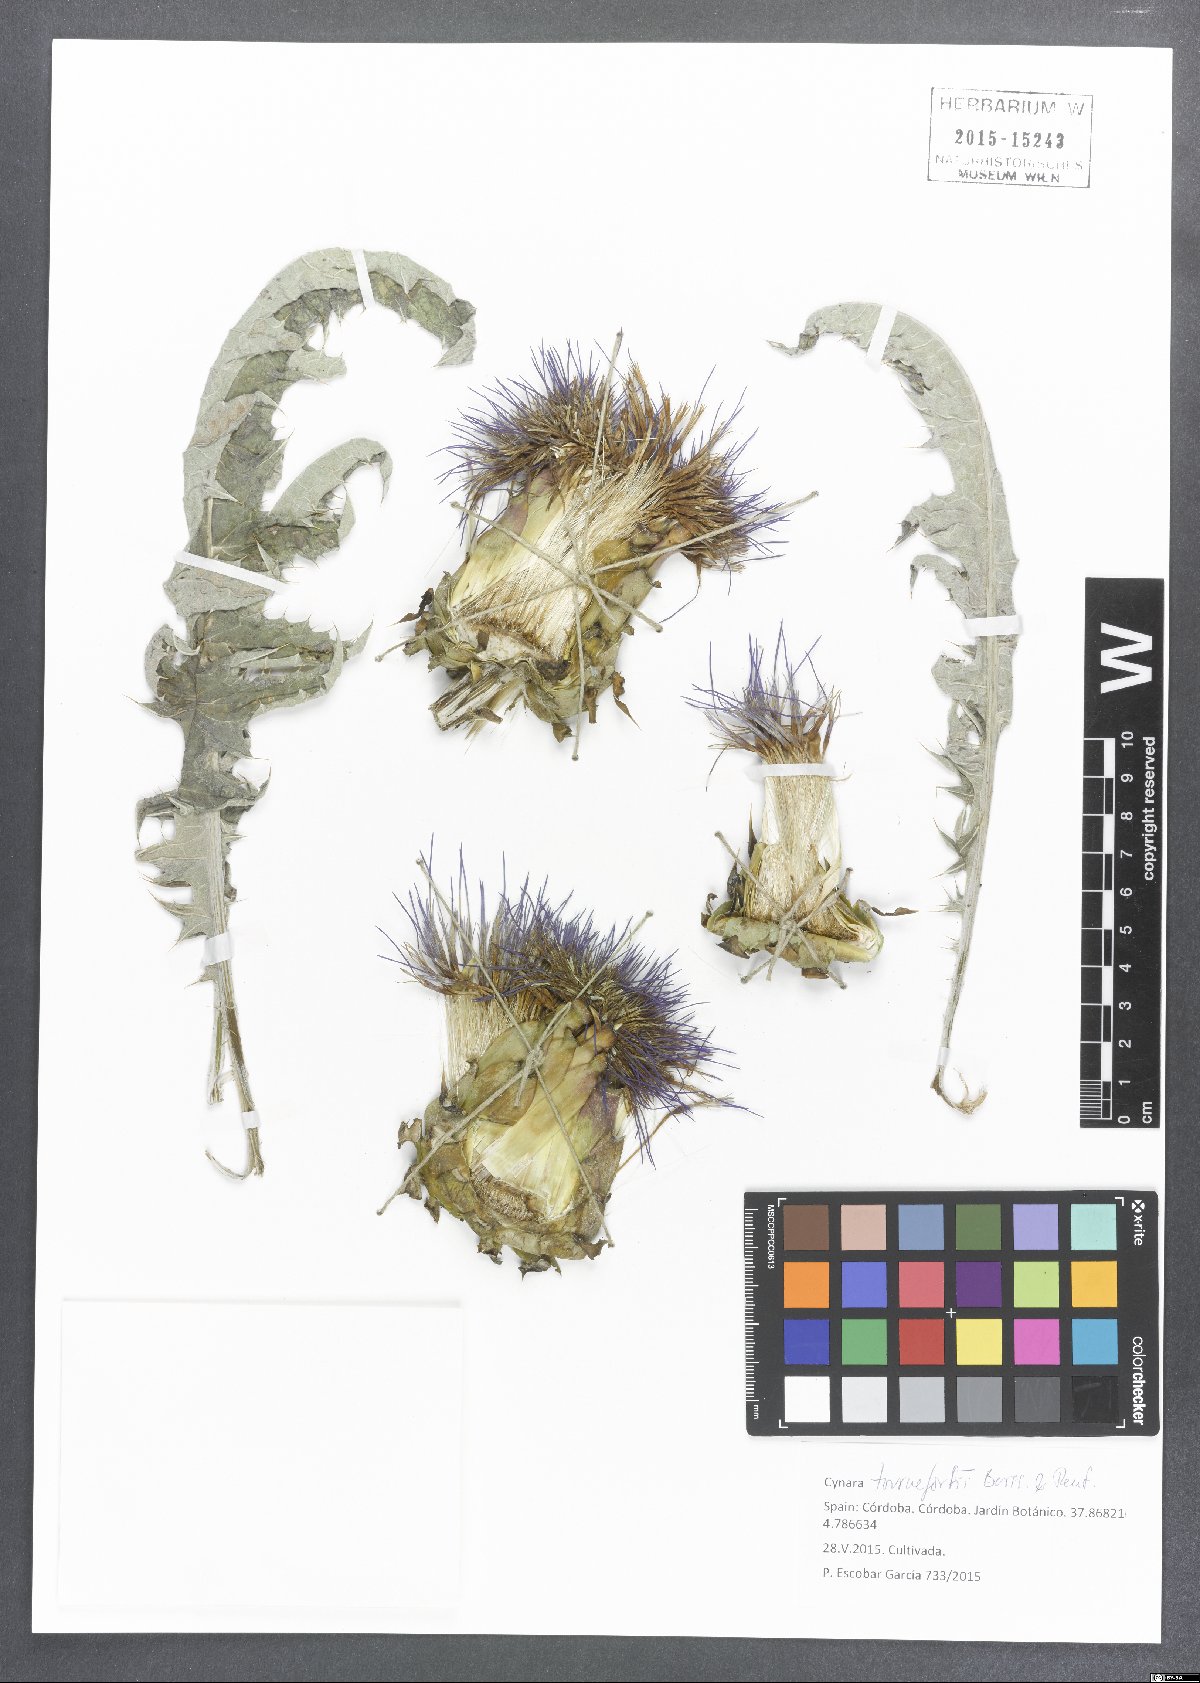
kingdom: Plantae
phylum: Tracheophyta
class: Magnoliopsida
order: Asterales
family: Asteraceae
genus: Cynara
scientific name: Cynara tournefortii
